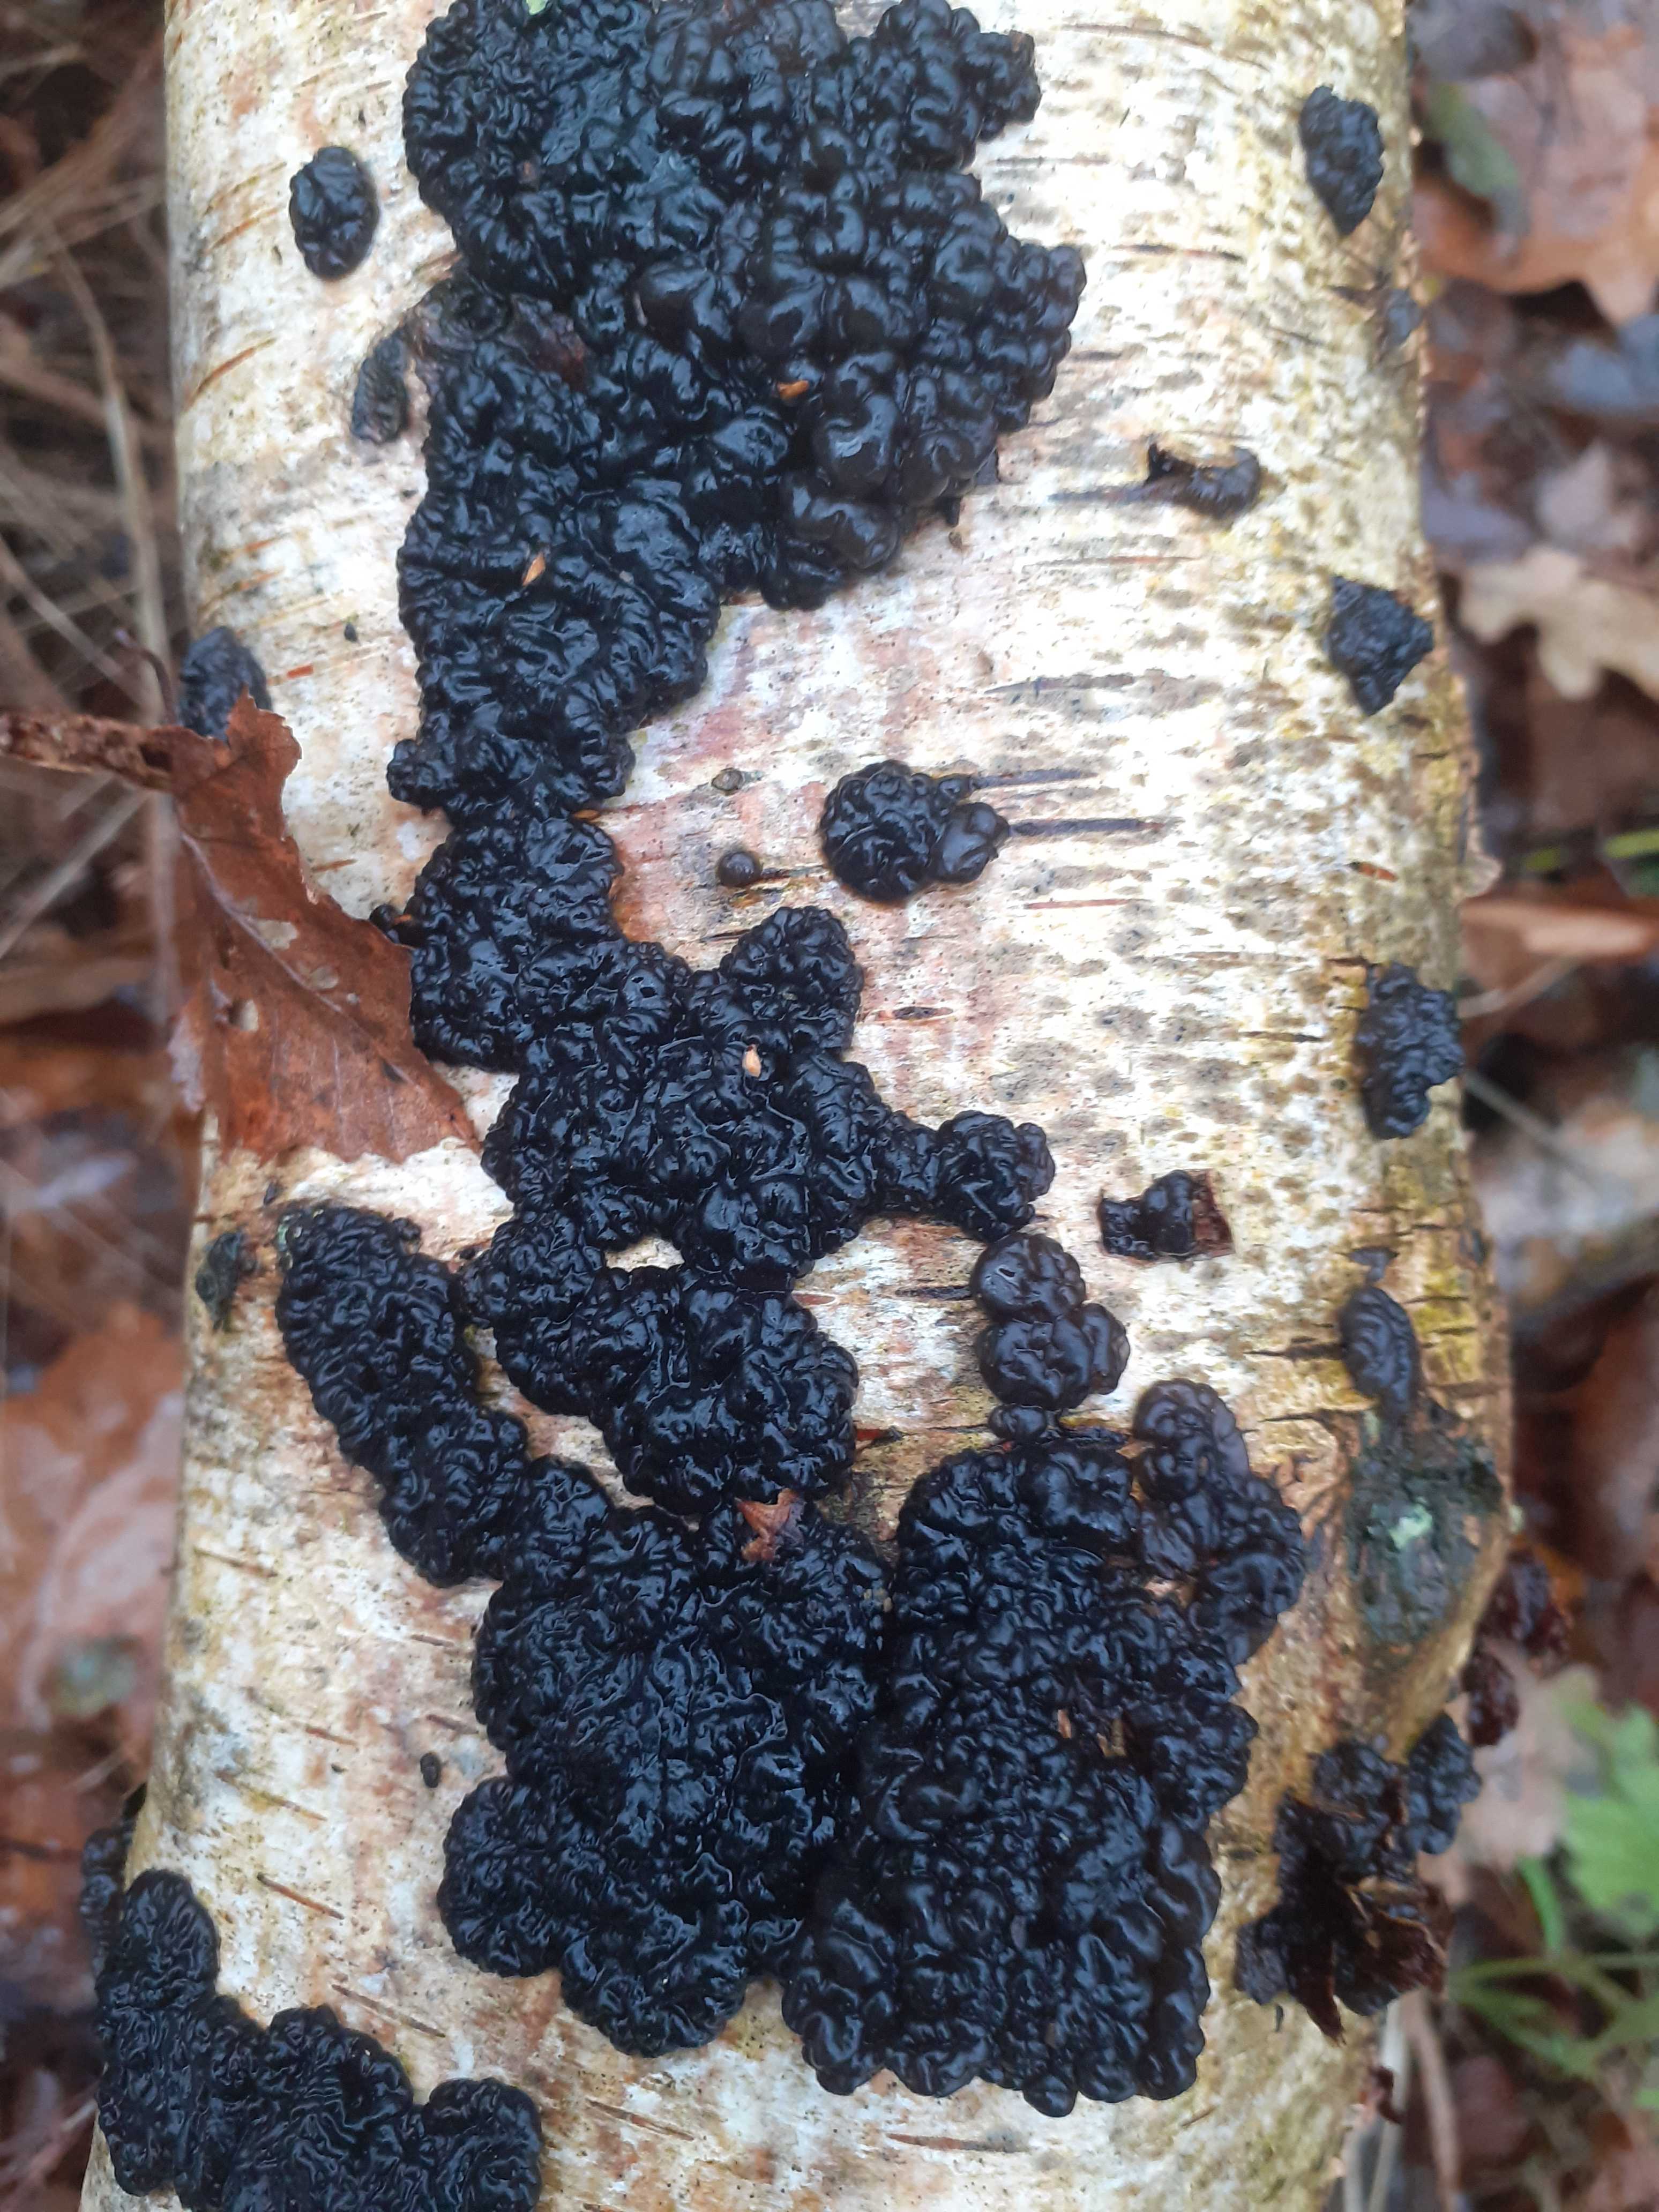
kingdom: Fungi
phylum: Basidiomycota
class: Agaricomycetes
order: Auriculariales
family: Auriculariaceae
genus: Exidia
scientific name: Exidia nigricans
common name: almindelig bævretop
